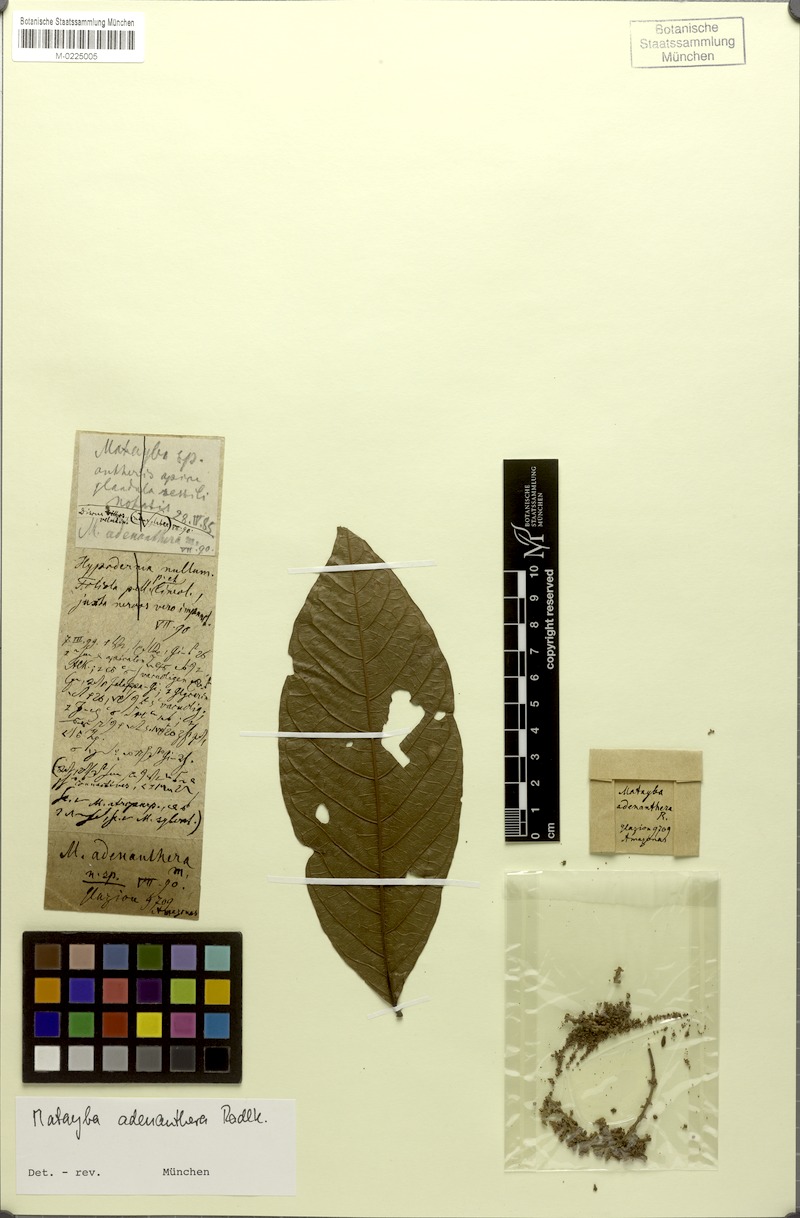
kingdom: Plantae
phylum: Tracheophyta
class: Magnoliopsida
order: Sapindales
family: Sapindaceae
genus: Matayba
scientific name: Matayba adenanthera
